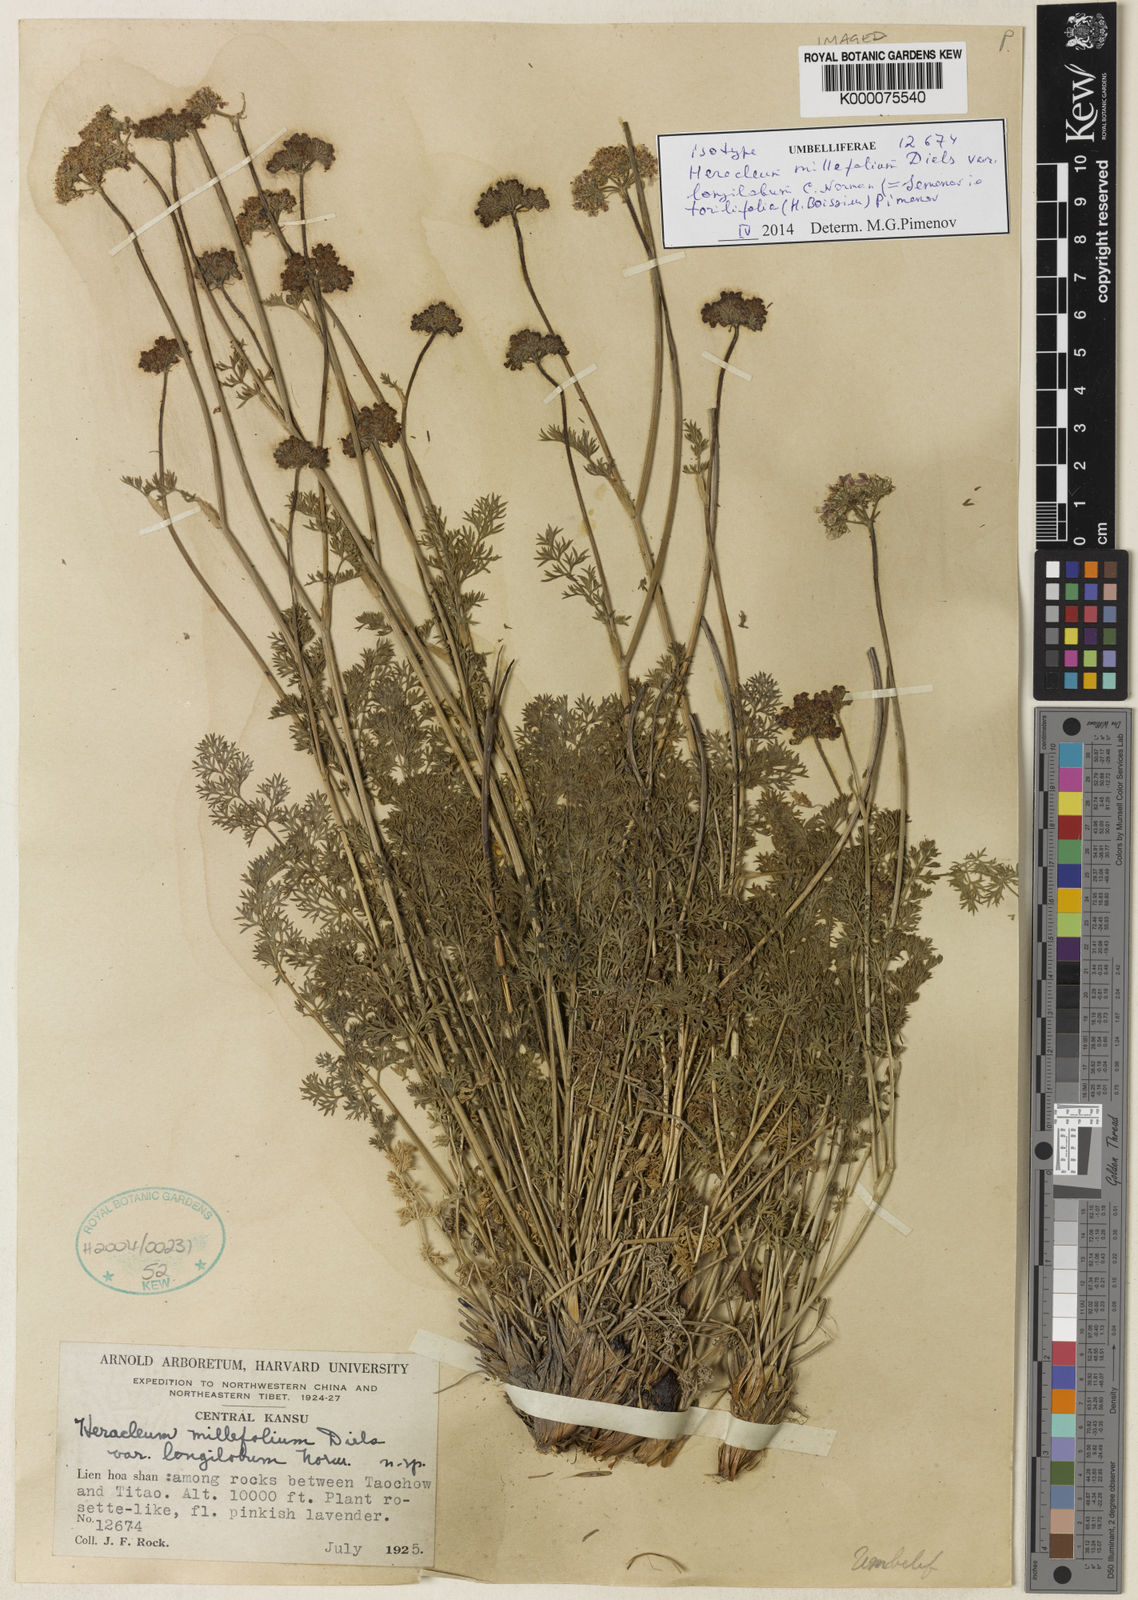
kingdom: Plantae
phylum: Tracheophyta
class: Magnoliopsida
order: Apiales
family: Apiaceae
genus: Semenovia
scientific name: Semenovia torilifolia
